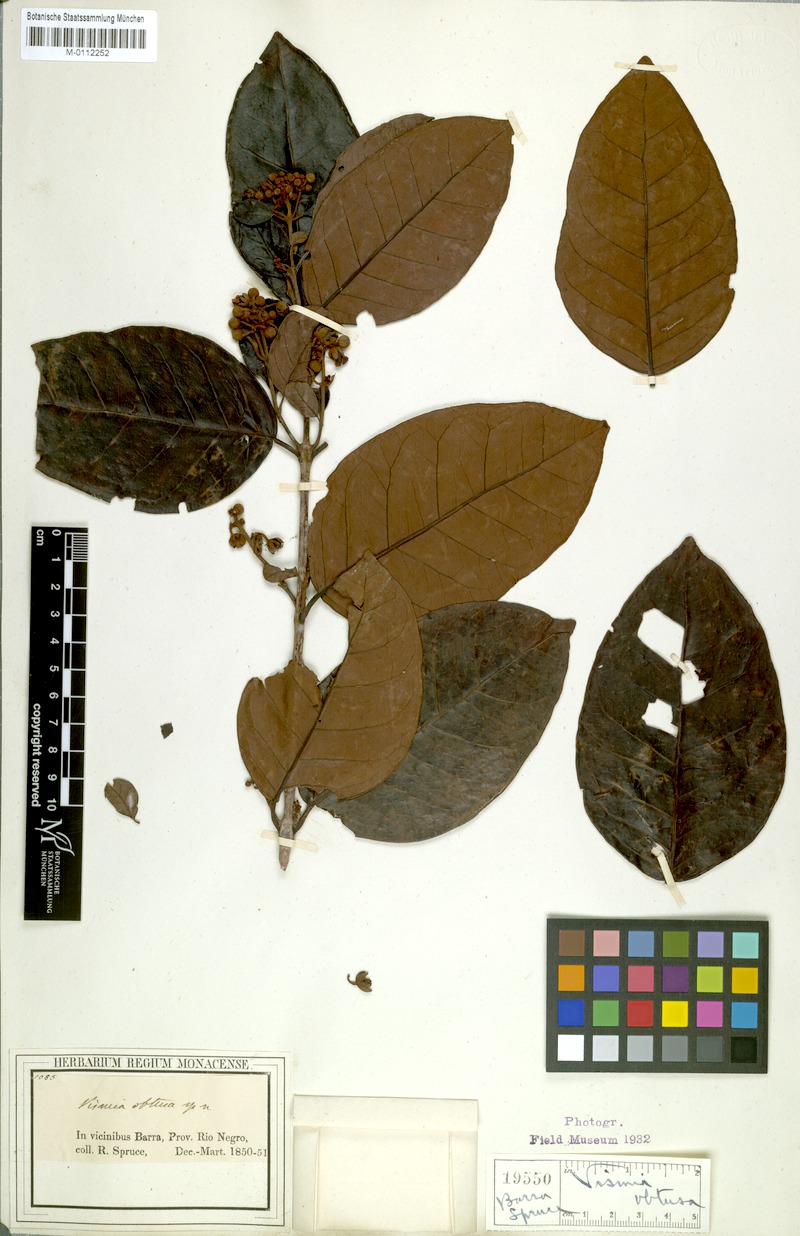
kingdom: Plantae
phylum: Tracheophyta
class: Magnoliopsida
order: Malpighiales
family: Hypericaceae
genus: Vismia
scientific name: Vismia obtusa
